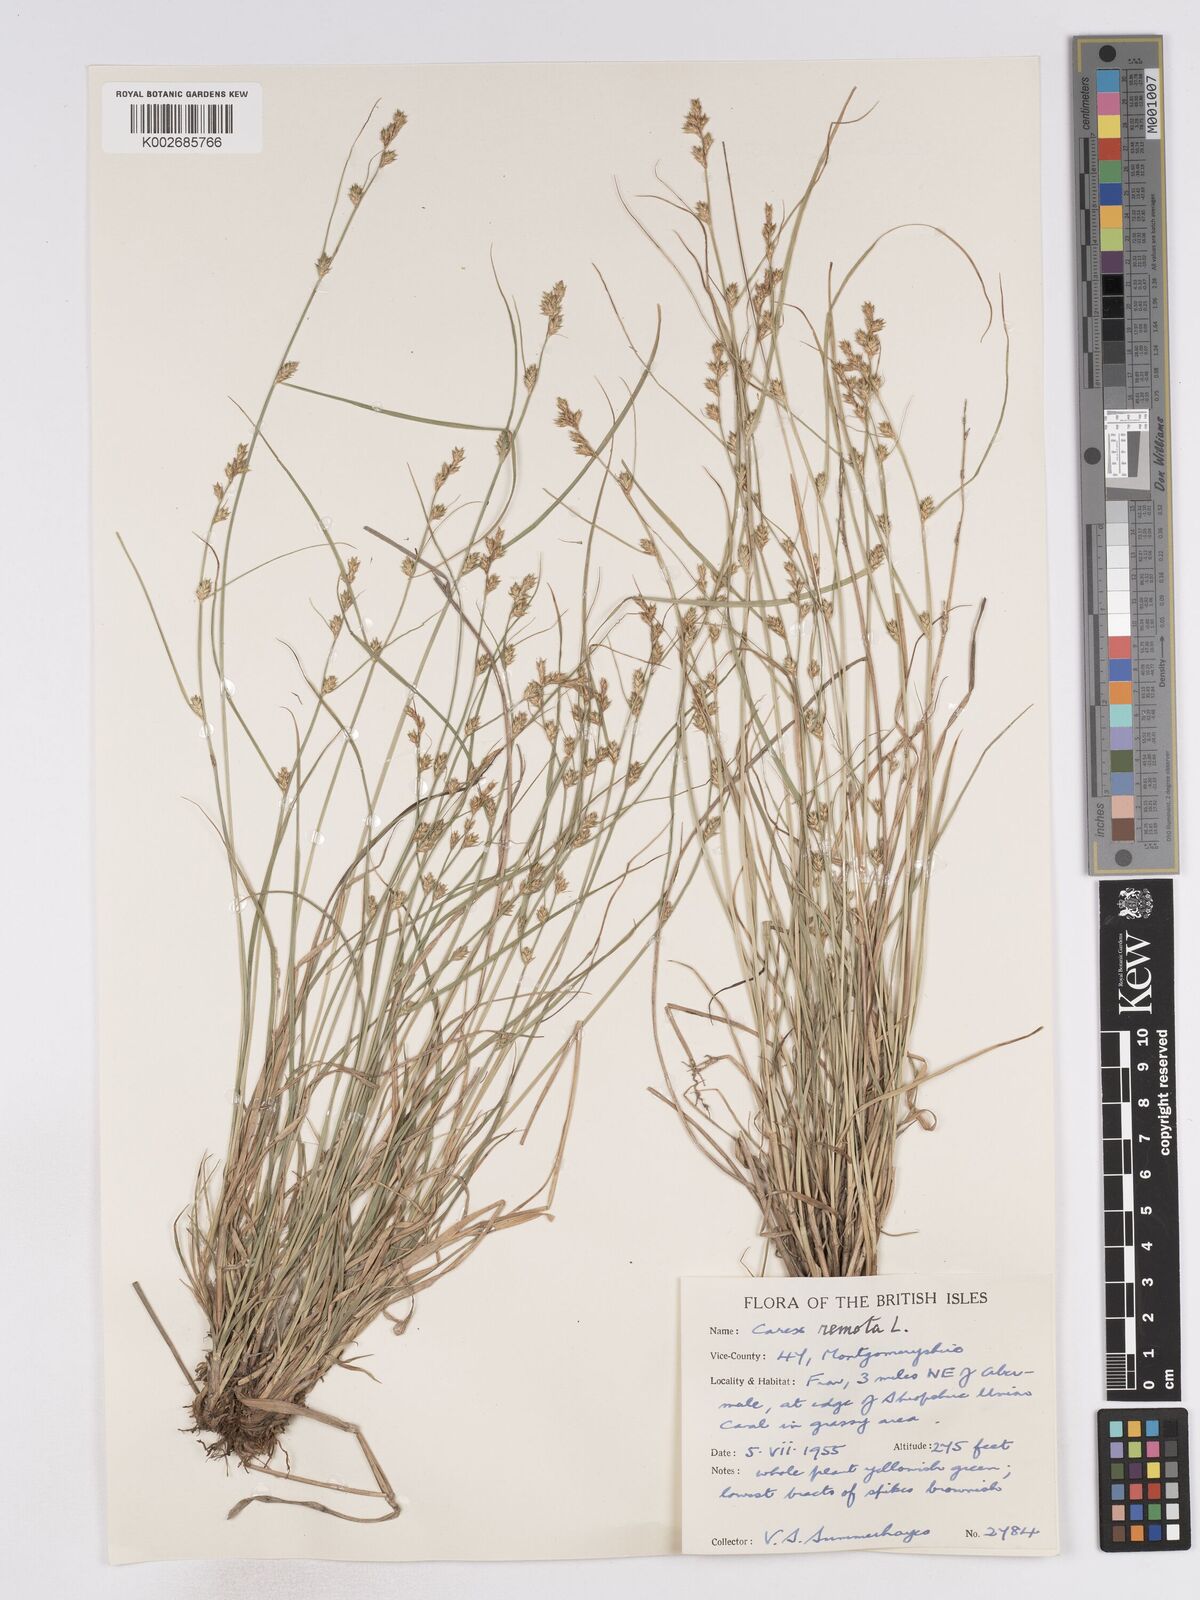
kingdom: Plantae
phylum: Tracheophyta
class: Liliopsida
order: Poales
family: Cyperaceae
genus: Carex
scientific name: Carex remota
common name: Remote sedge
